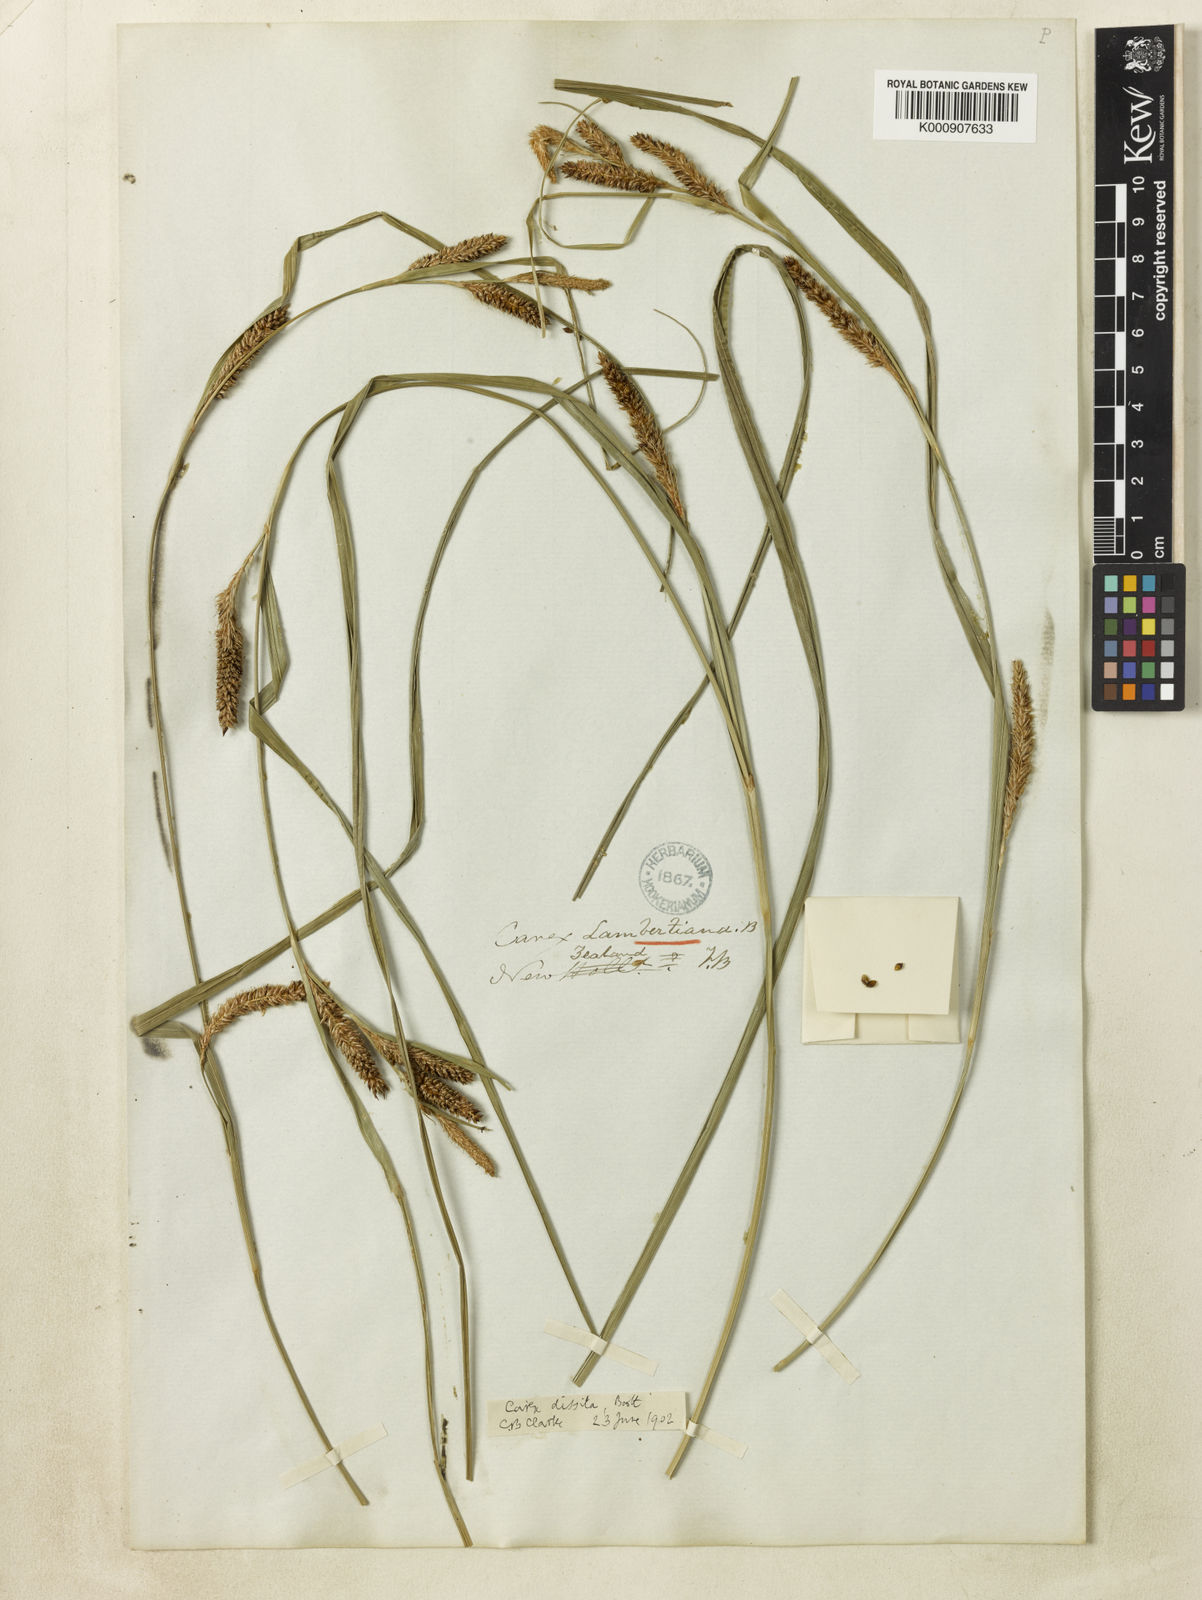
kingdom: Plantae
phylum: Tracheophyta
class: Liliopsida
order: Poales
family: Cyperaceae
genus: Carex
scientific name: Carex dissita
